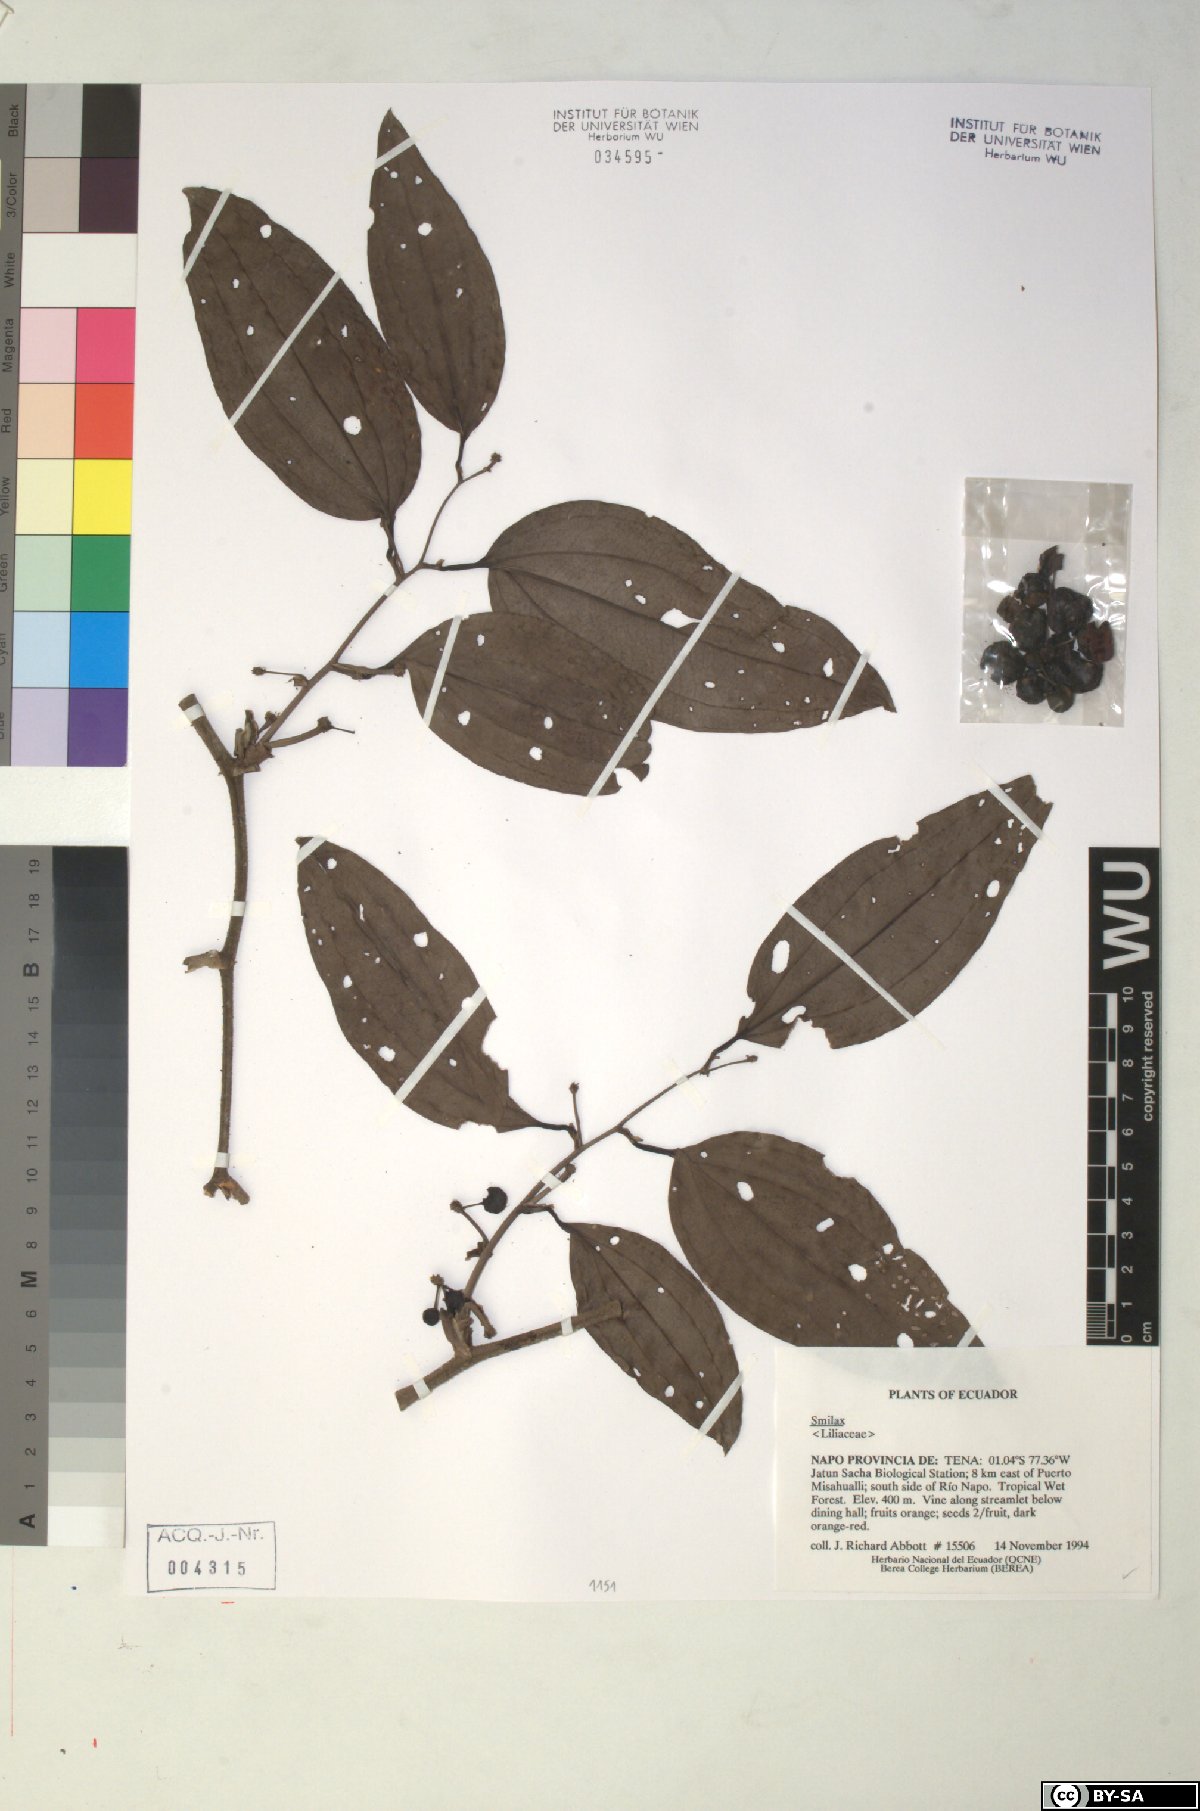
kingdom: Plantae
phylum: Tracheophyta
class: Liliopsida
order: Liliales
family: Smilacaceae
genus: Smilax
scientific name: Smilax
